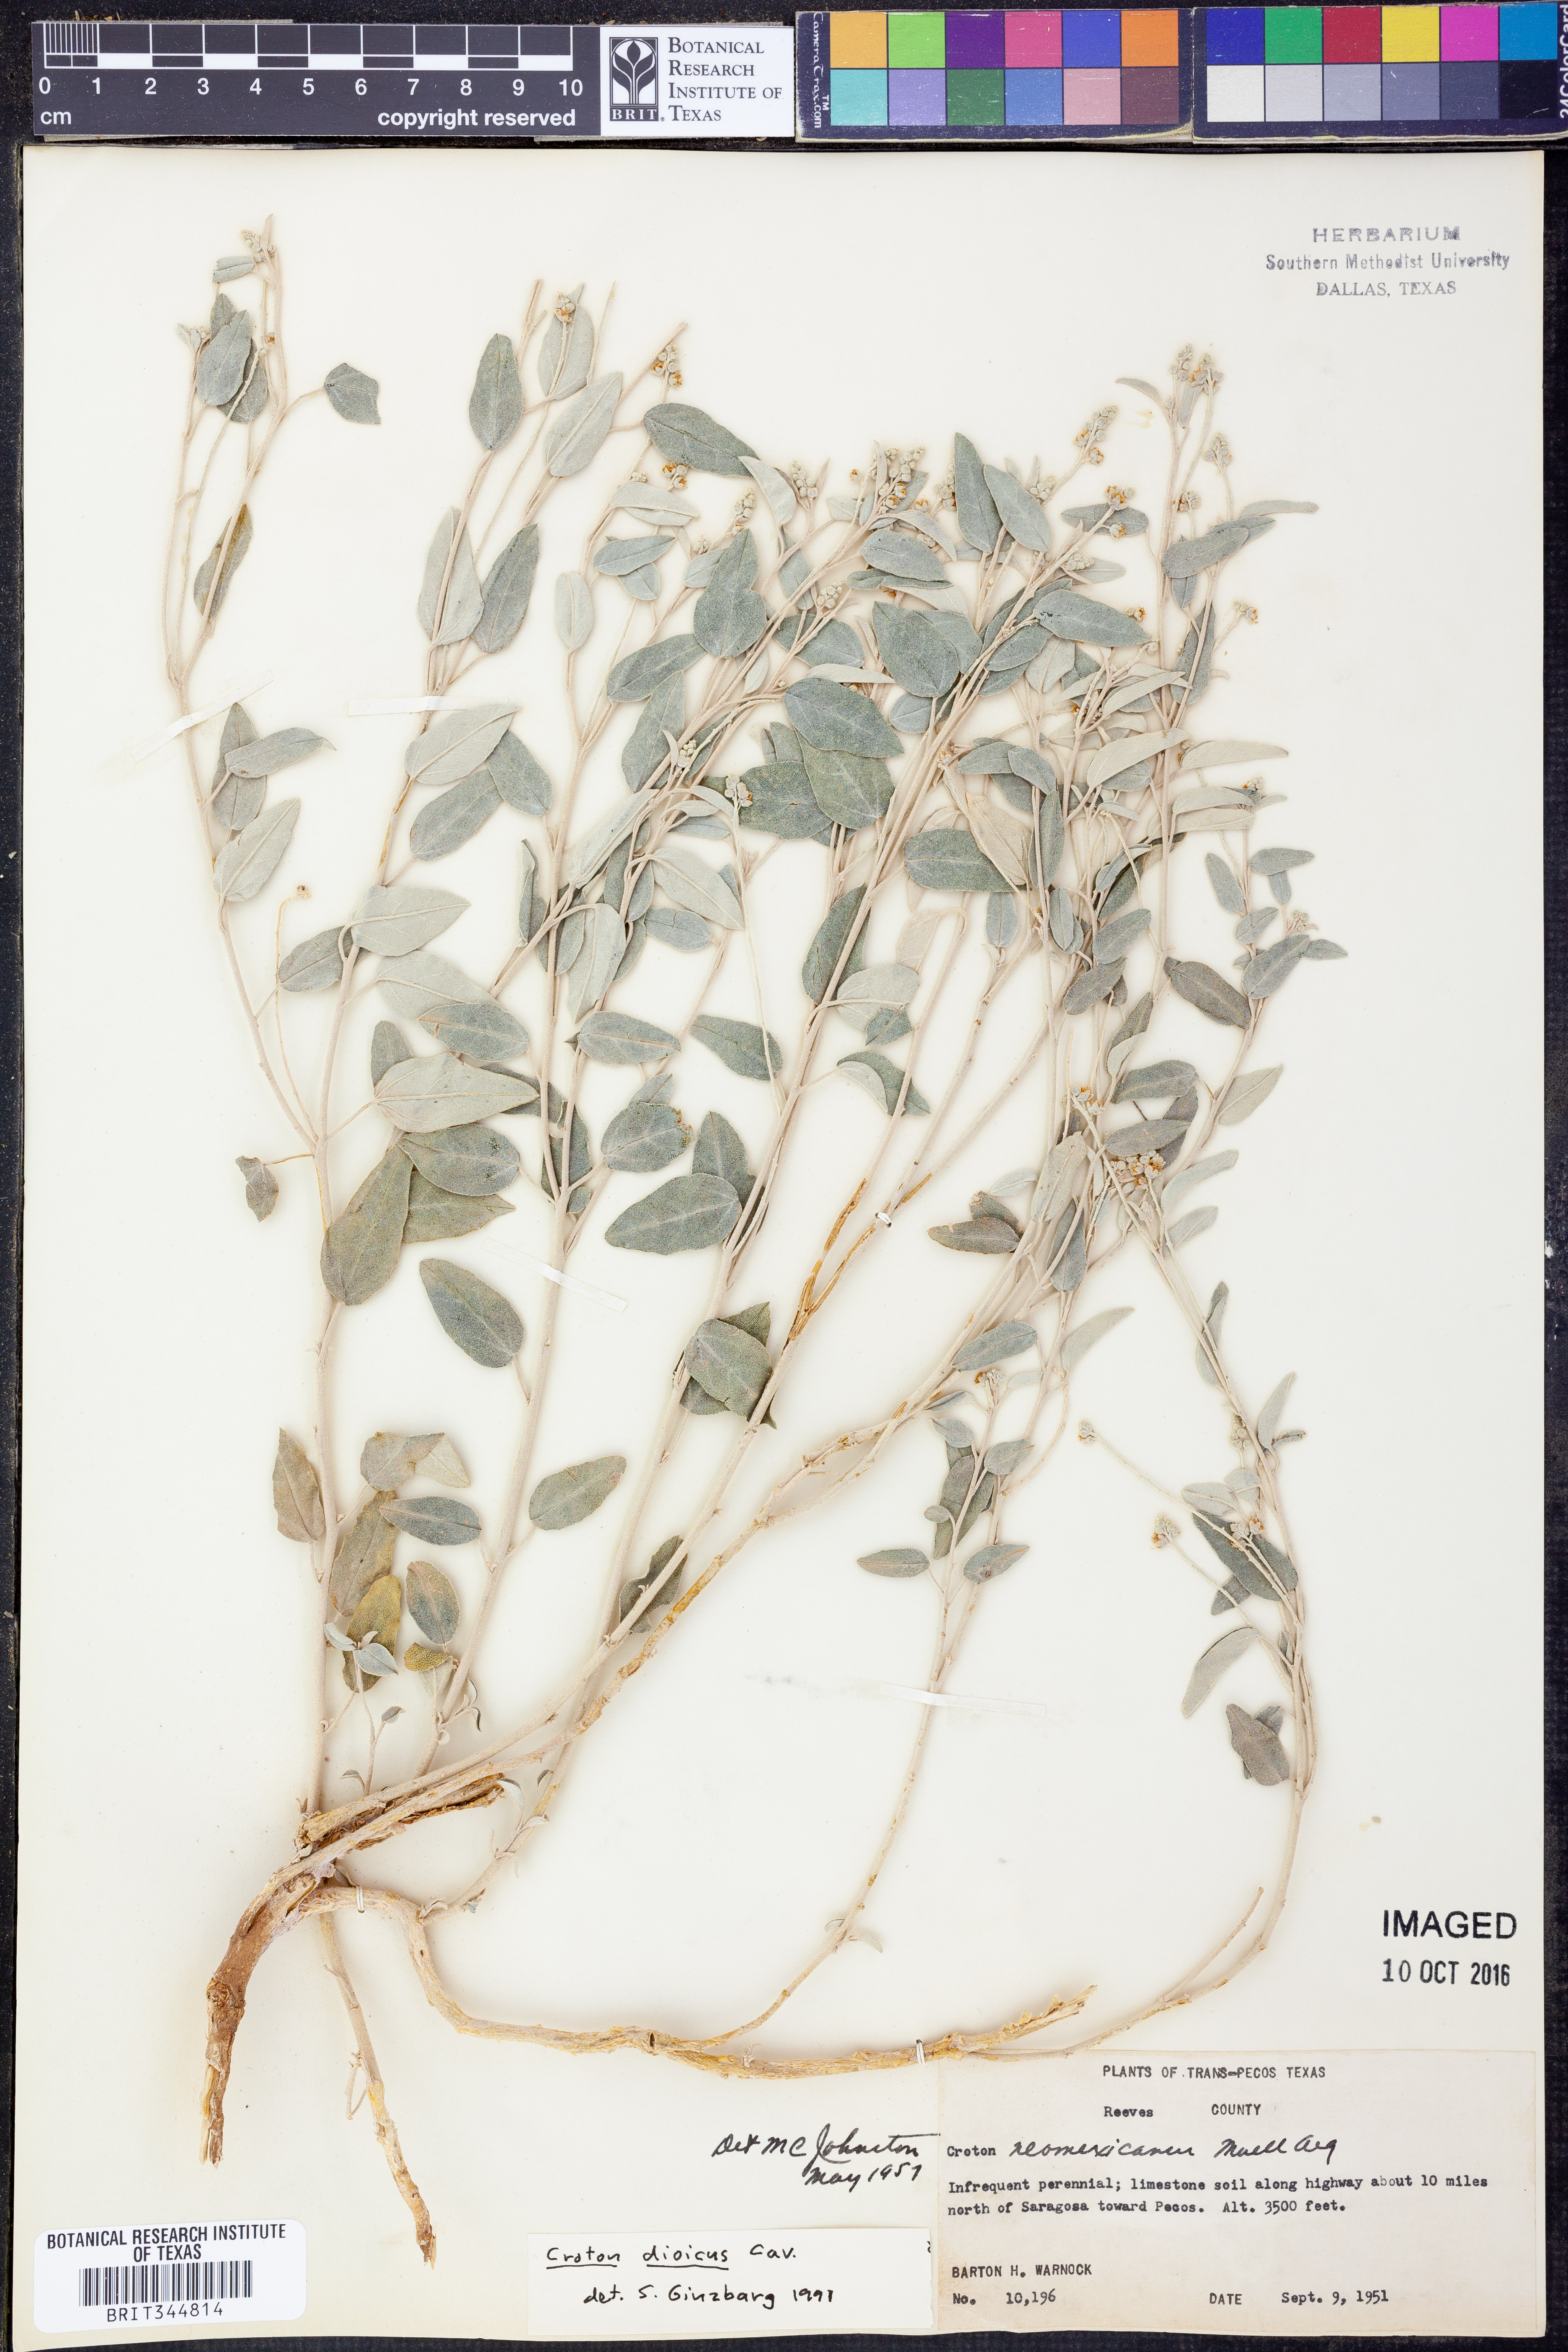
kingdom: Plantae
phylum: Tracheophyta
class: Magnoliopsida
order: Malpighiales
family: Euphorbiaceae
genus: Croton
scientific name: Croton dioicus
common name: Grassland croton
